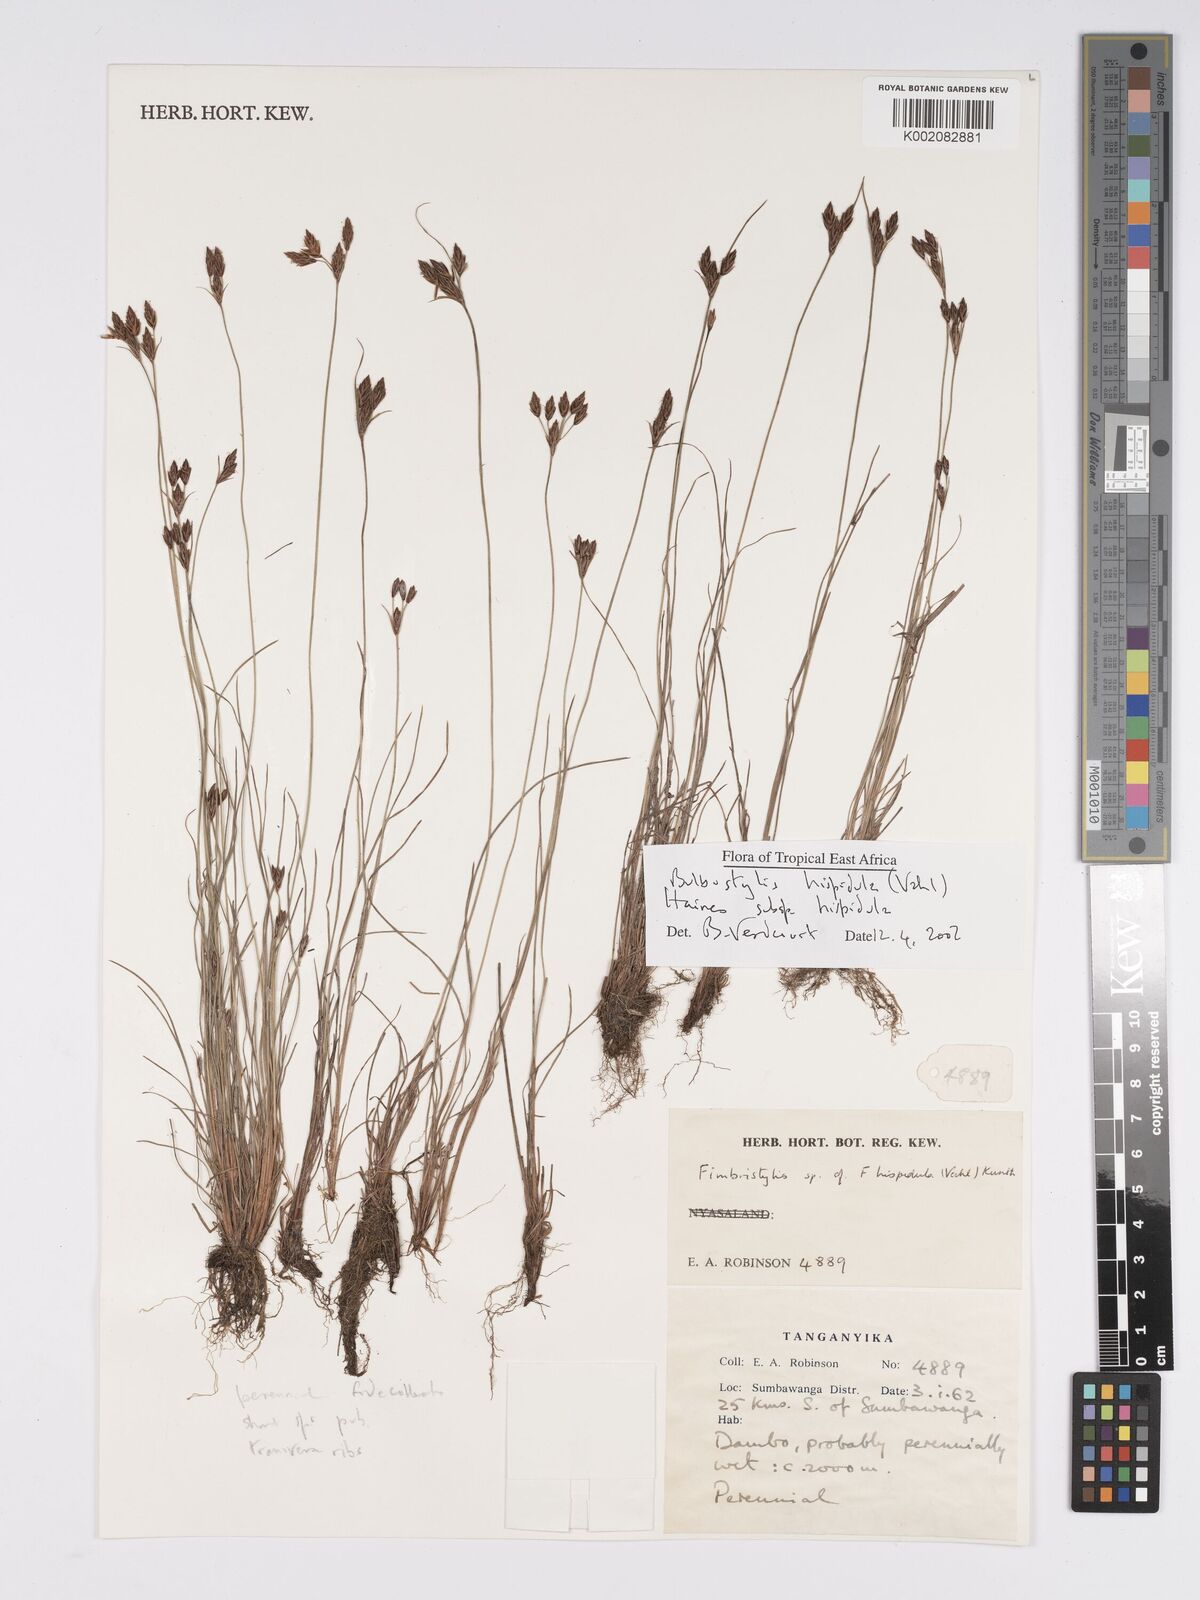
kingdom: Plantae
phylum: Tracheophyta
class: Liliopsida
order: Poales
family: Cyperaceae
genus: Bulbostylis
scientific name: Bulbostylis hispidula
